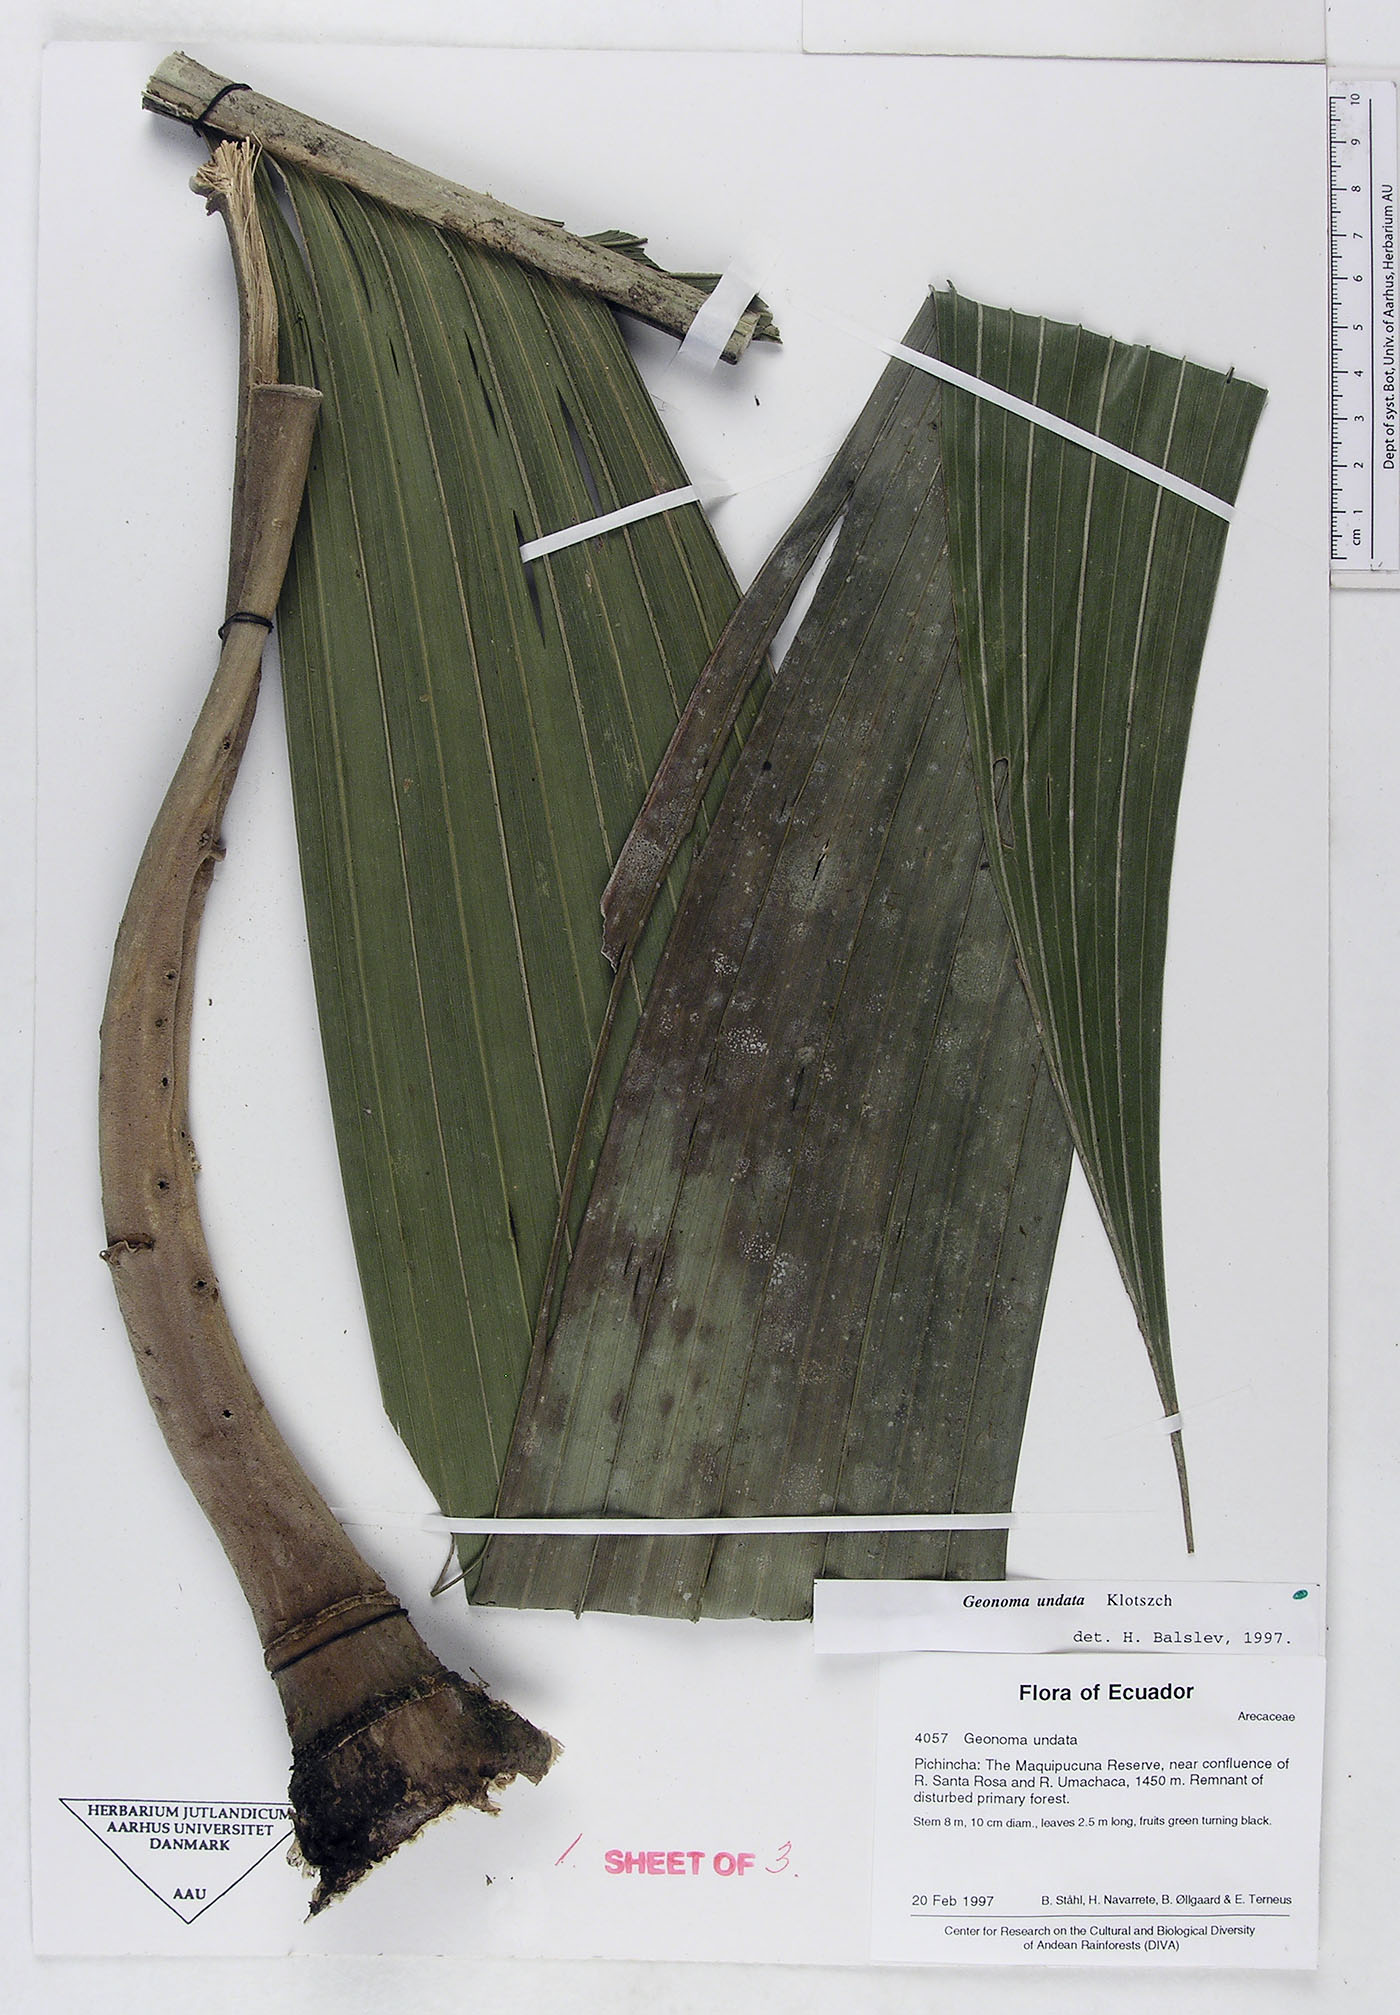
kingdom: Plantae
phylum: Tracheophyta
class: Liliopsida
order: Arecales
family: Arecaceae
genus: Geonoma
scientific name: Geonoma undata
